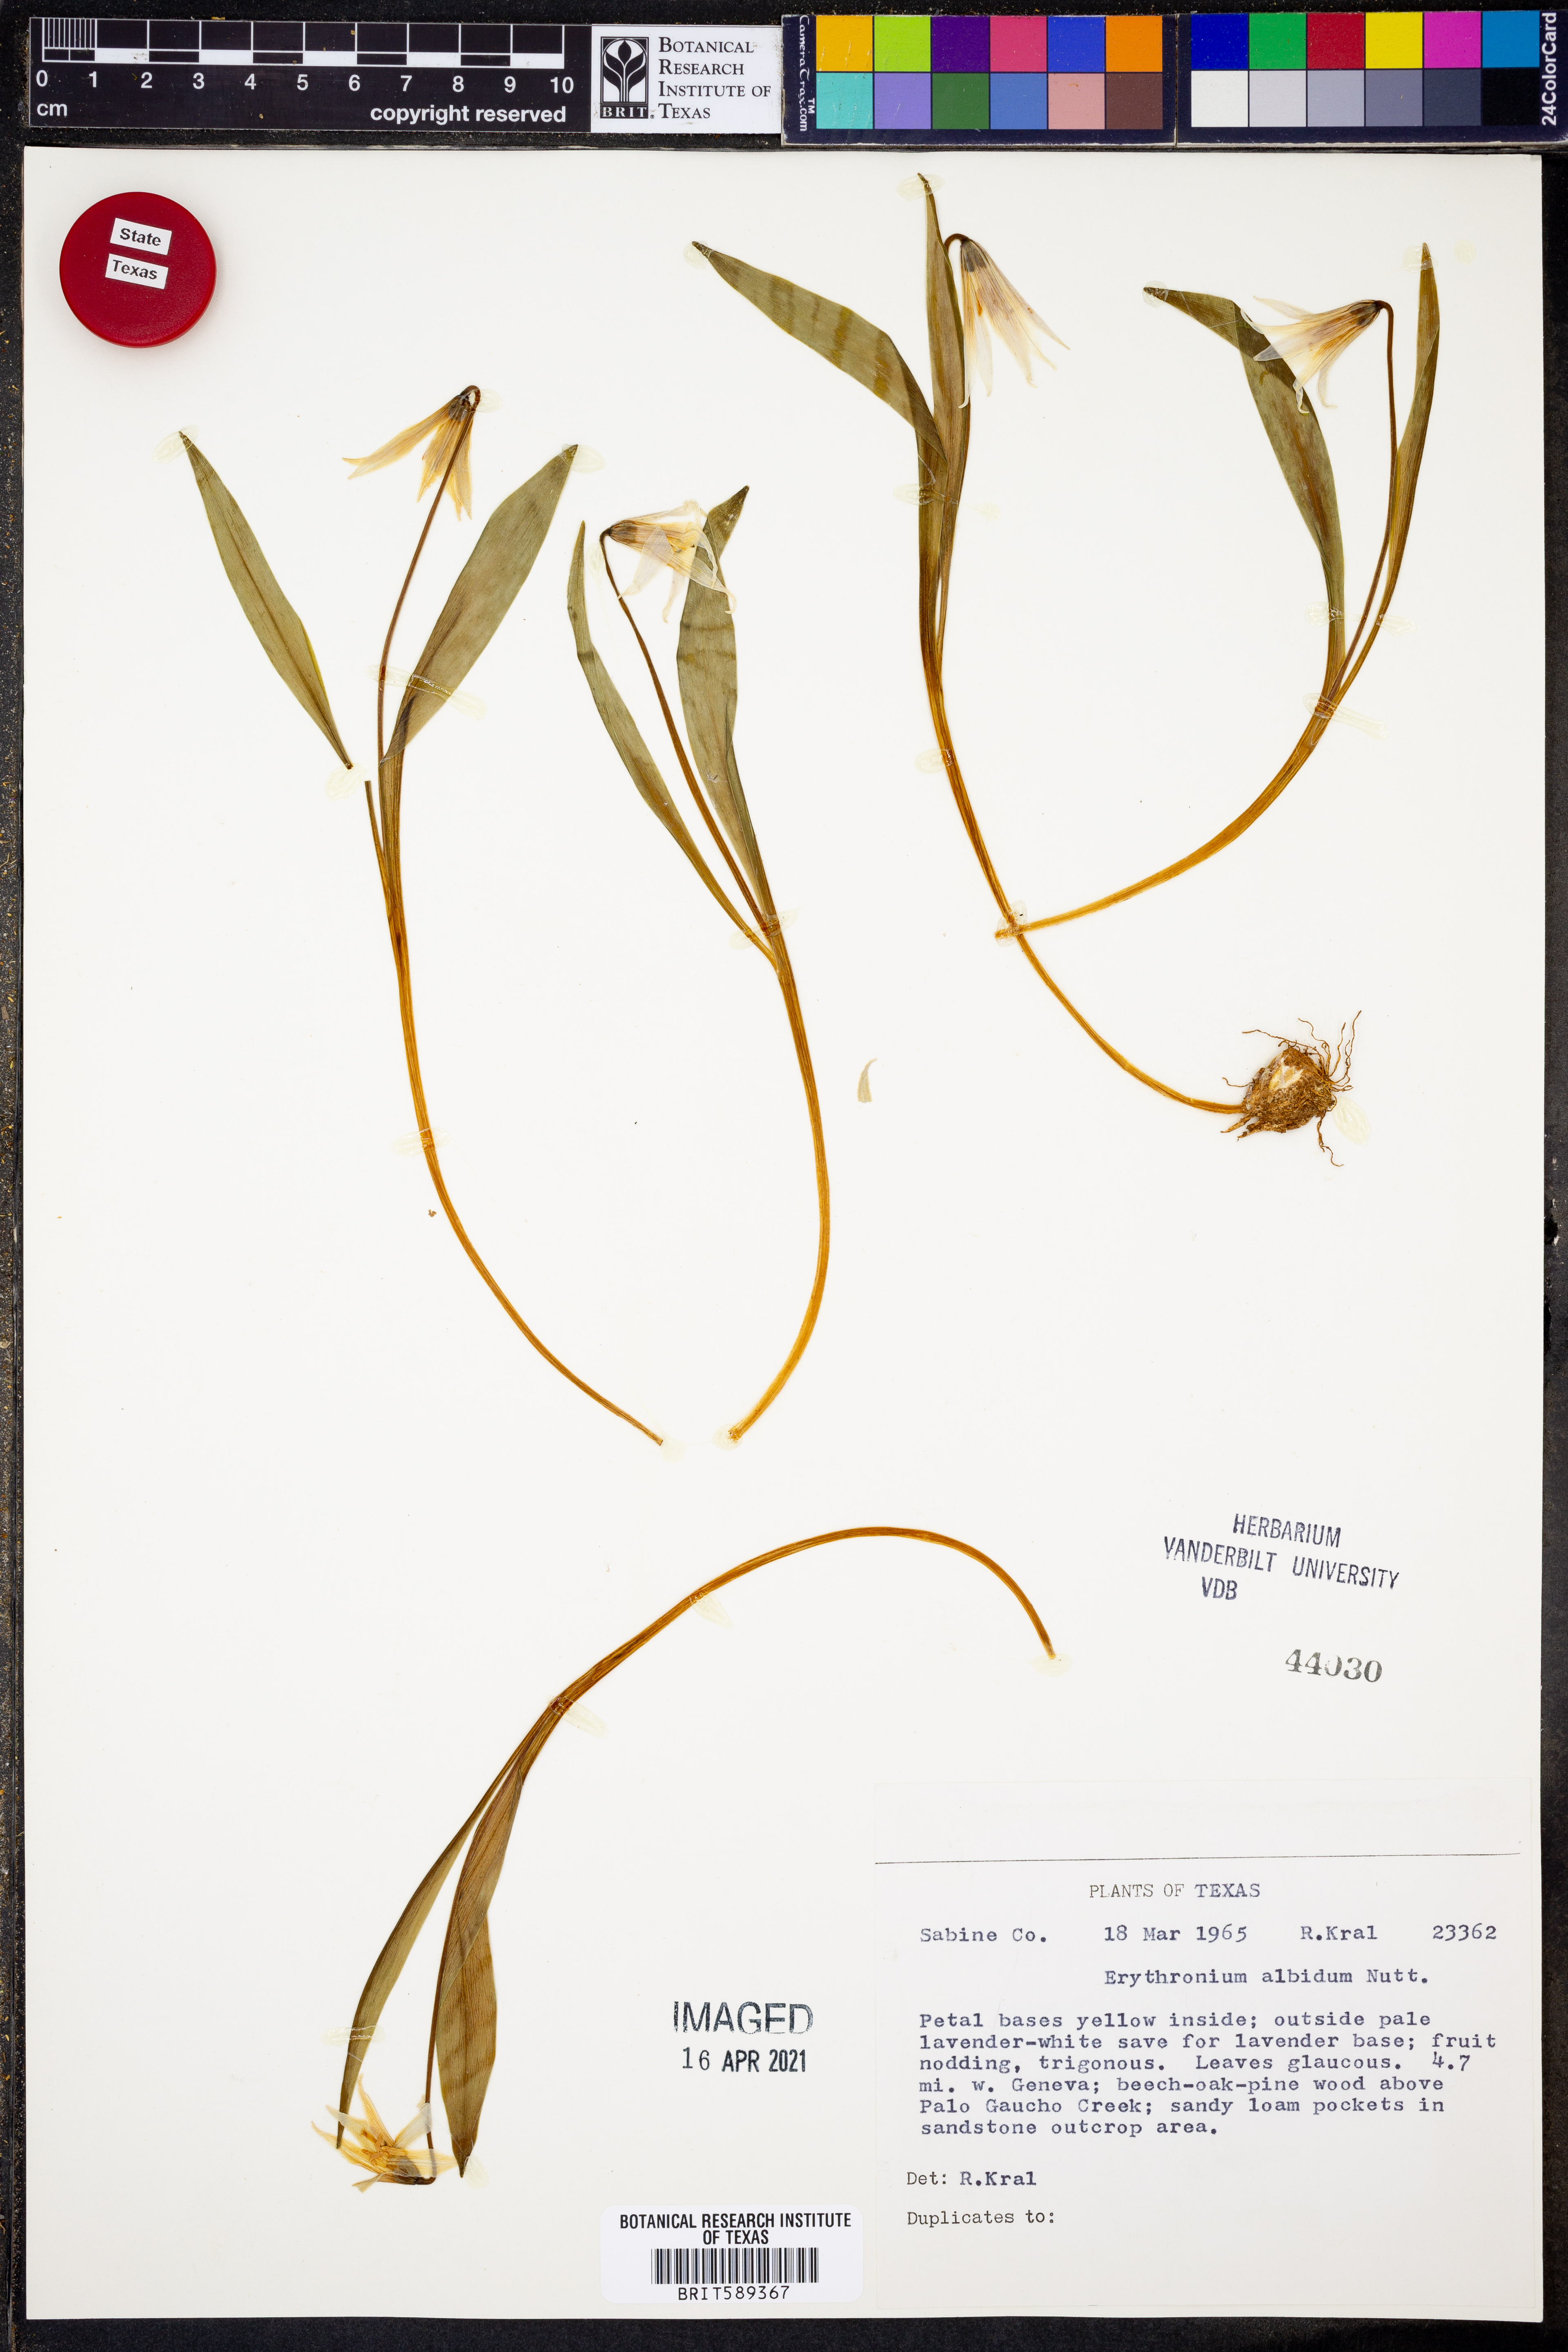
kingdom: Plantae
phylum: Tracheophyta
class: Liliopsida
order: Liliales
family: Liliaceae
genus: Erythronium
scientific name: Erythronium albidum
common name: White trout-lily
